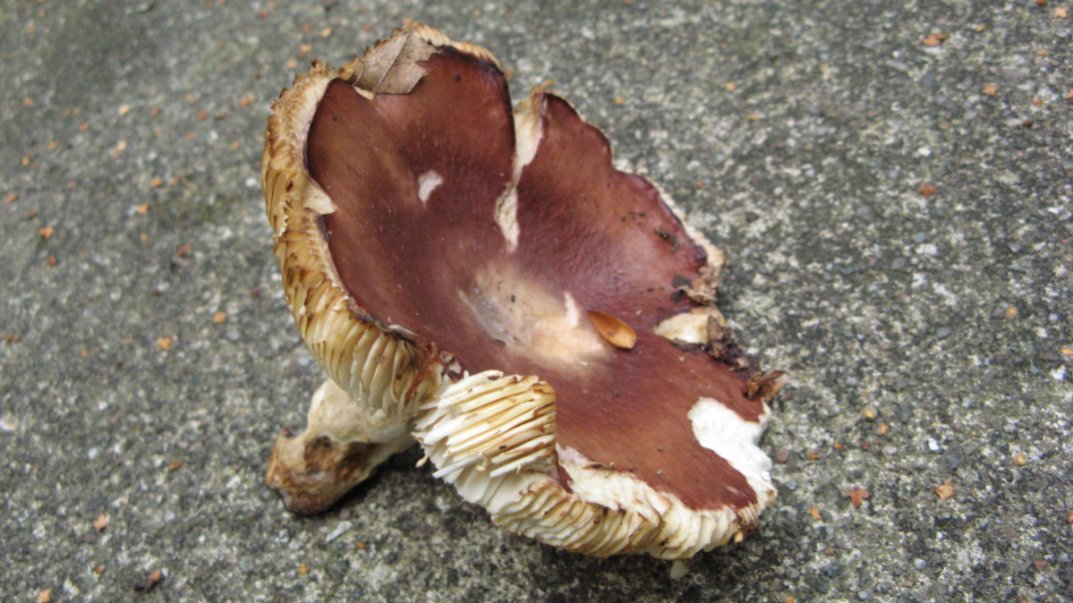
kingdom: Fungi
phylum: Basidiomycota
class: Agaricomycetes
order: Russulales
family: Russulaceae
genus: Russula
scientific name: Russula atropurpurea
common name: purpurbroget skørhat
